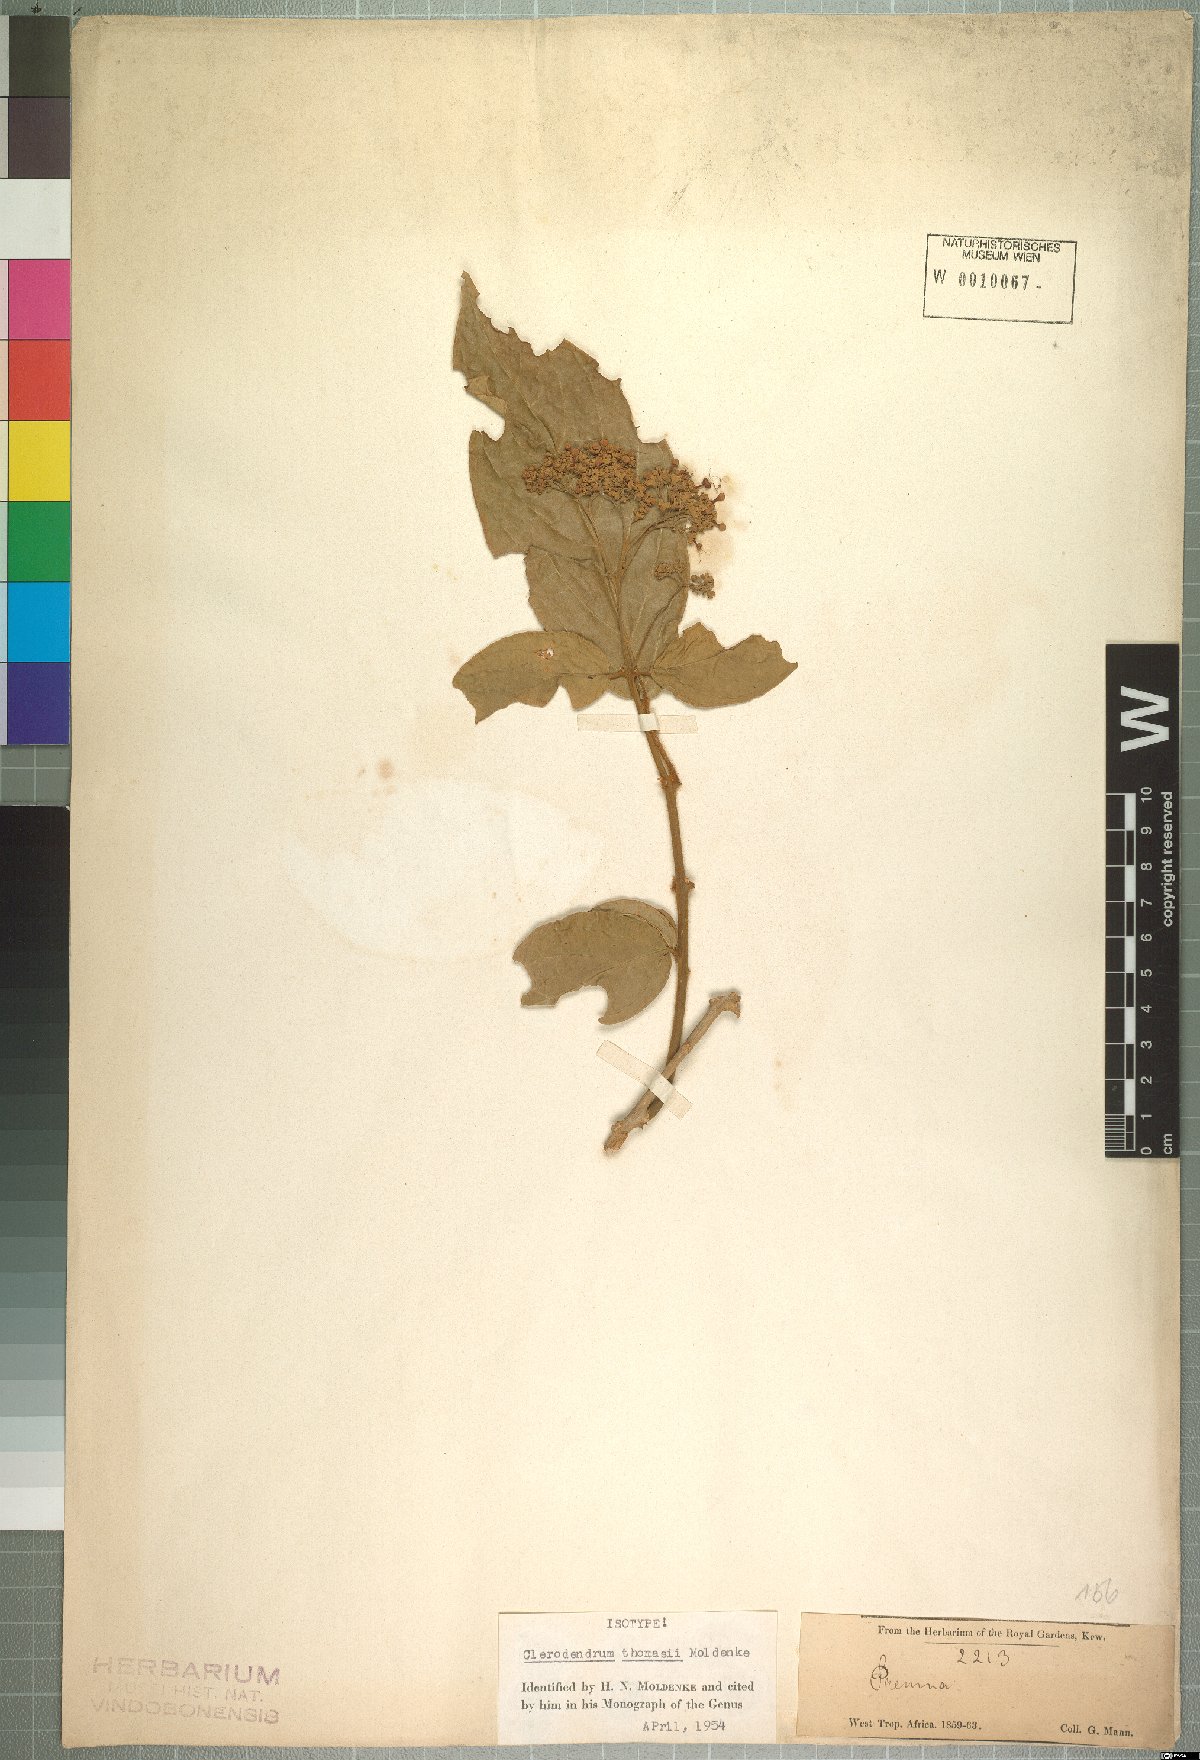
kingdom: Plantae
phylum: Tracheophyta
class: Magnoliopsida
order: Lamiales
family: Lamiaceae
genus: Clerodendrum
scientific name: Clerodendrum dusenii
